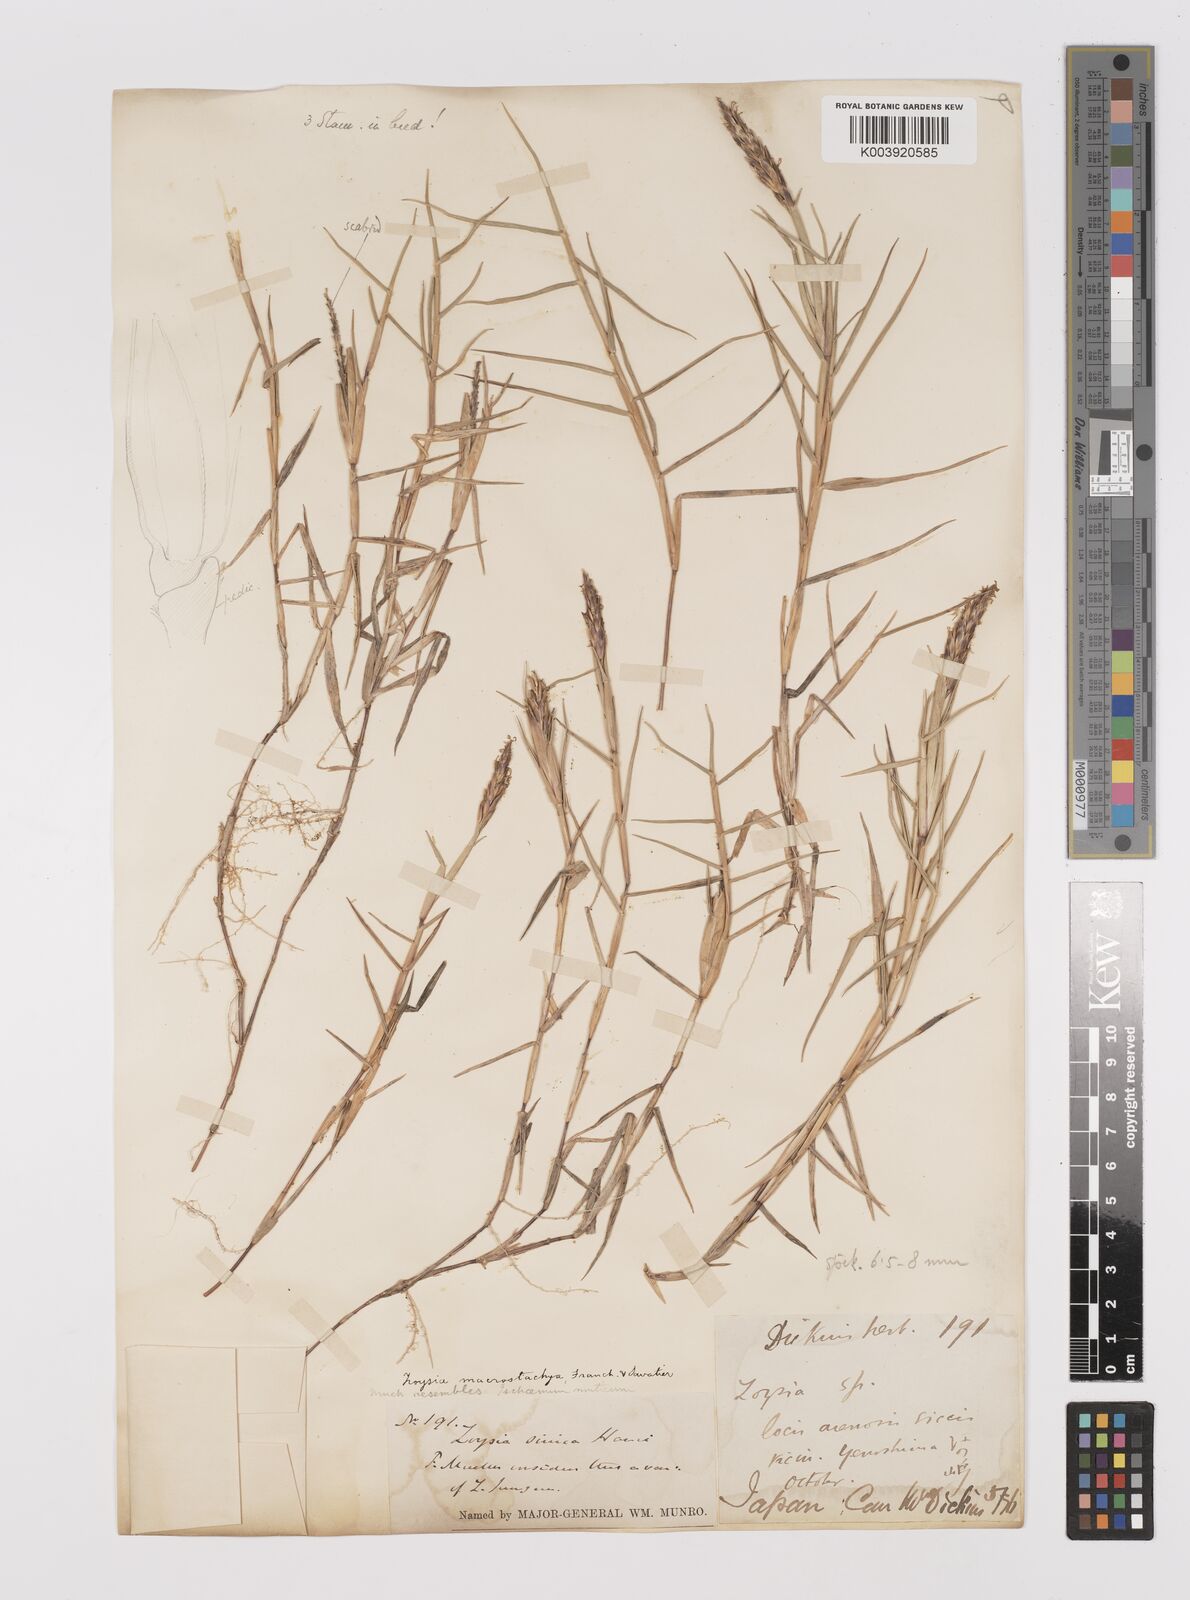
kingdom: Plantae
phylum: Tracheophyta
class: Liliopsida
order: Poales
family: Poaceae
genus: Zoysia
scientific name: Zoysia macrostachya
